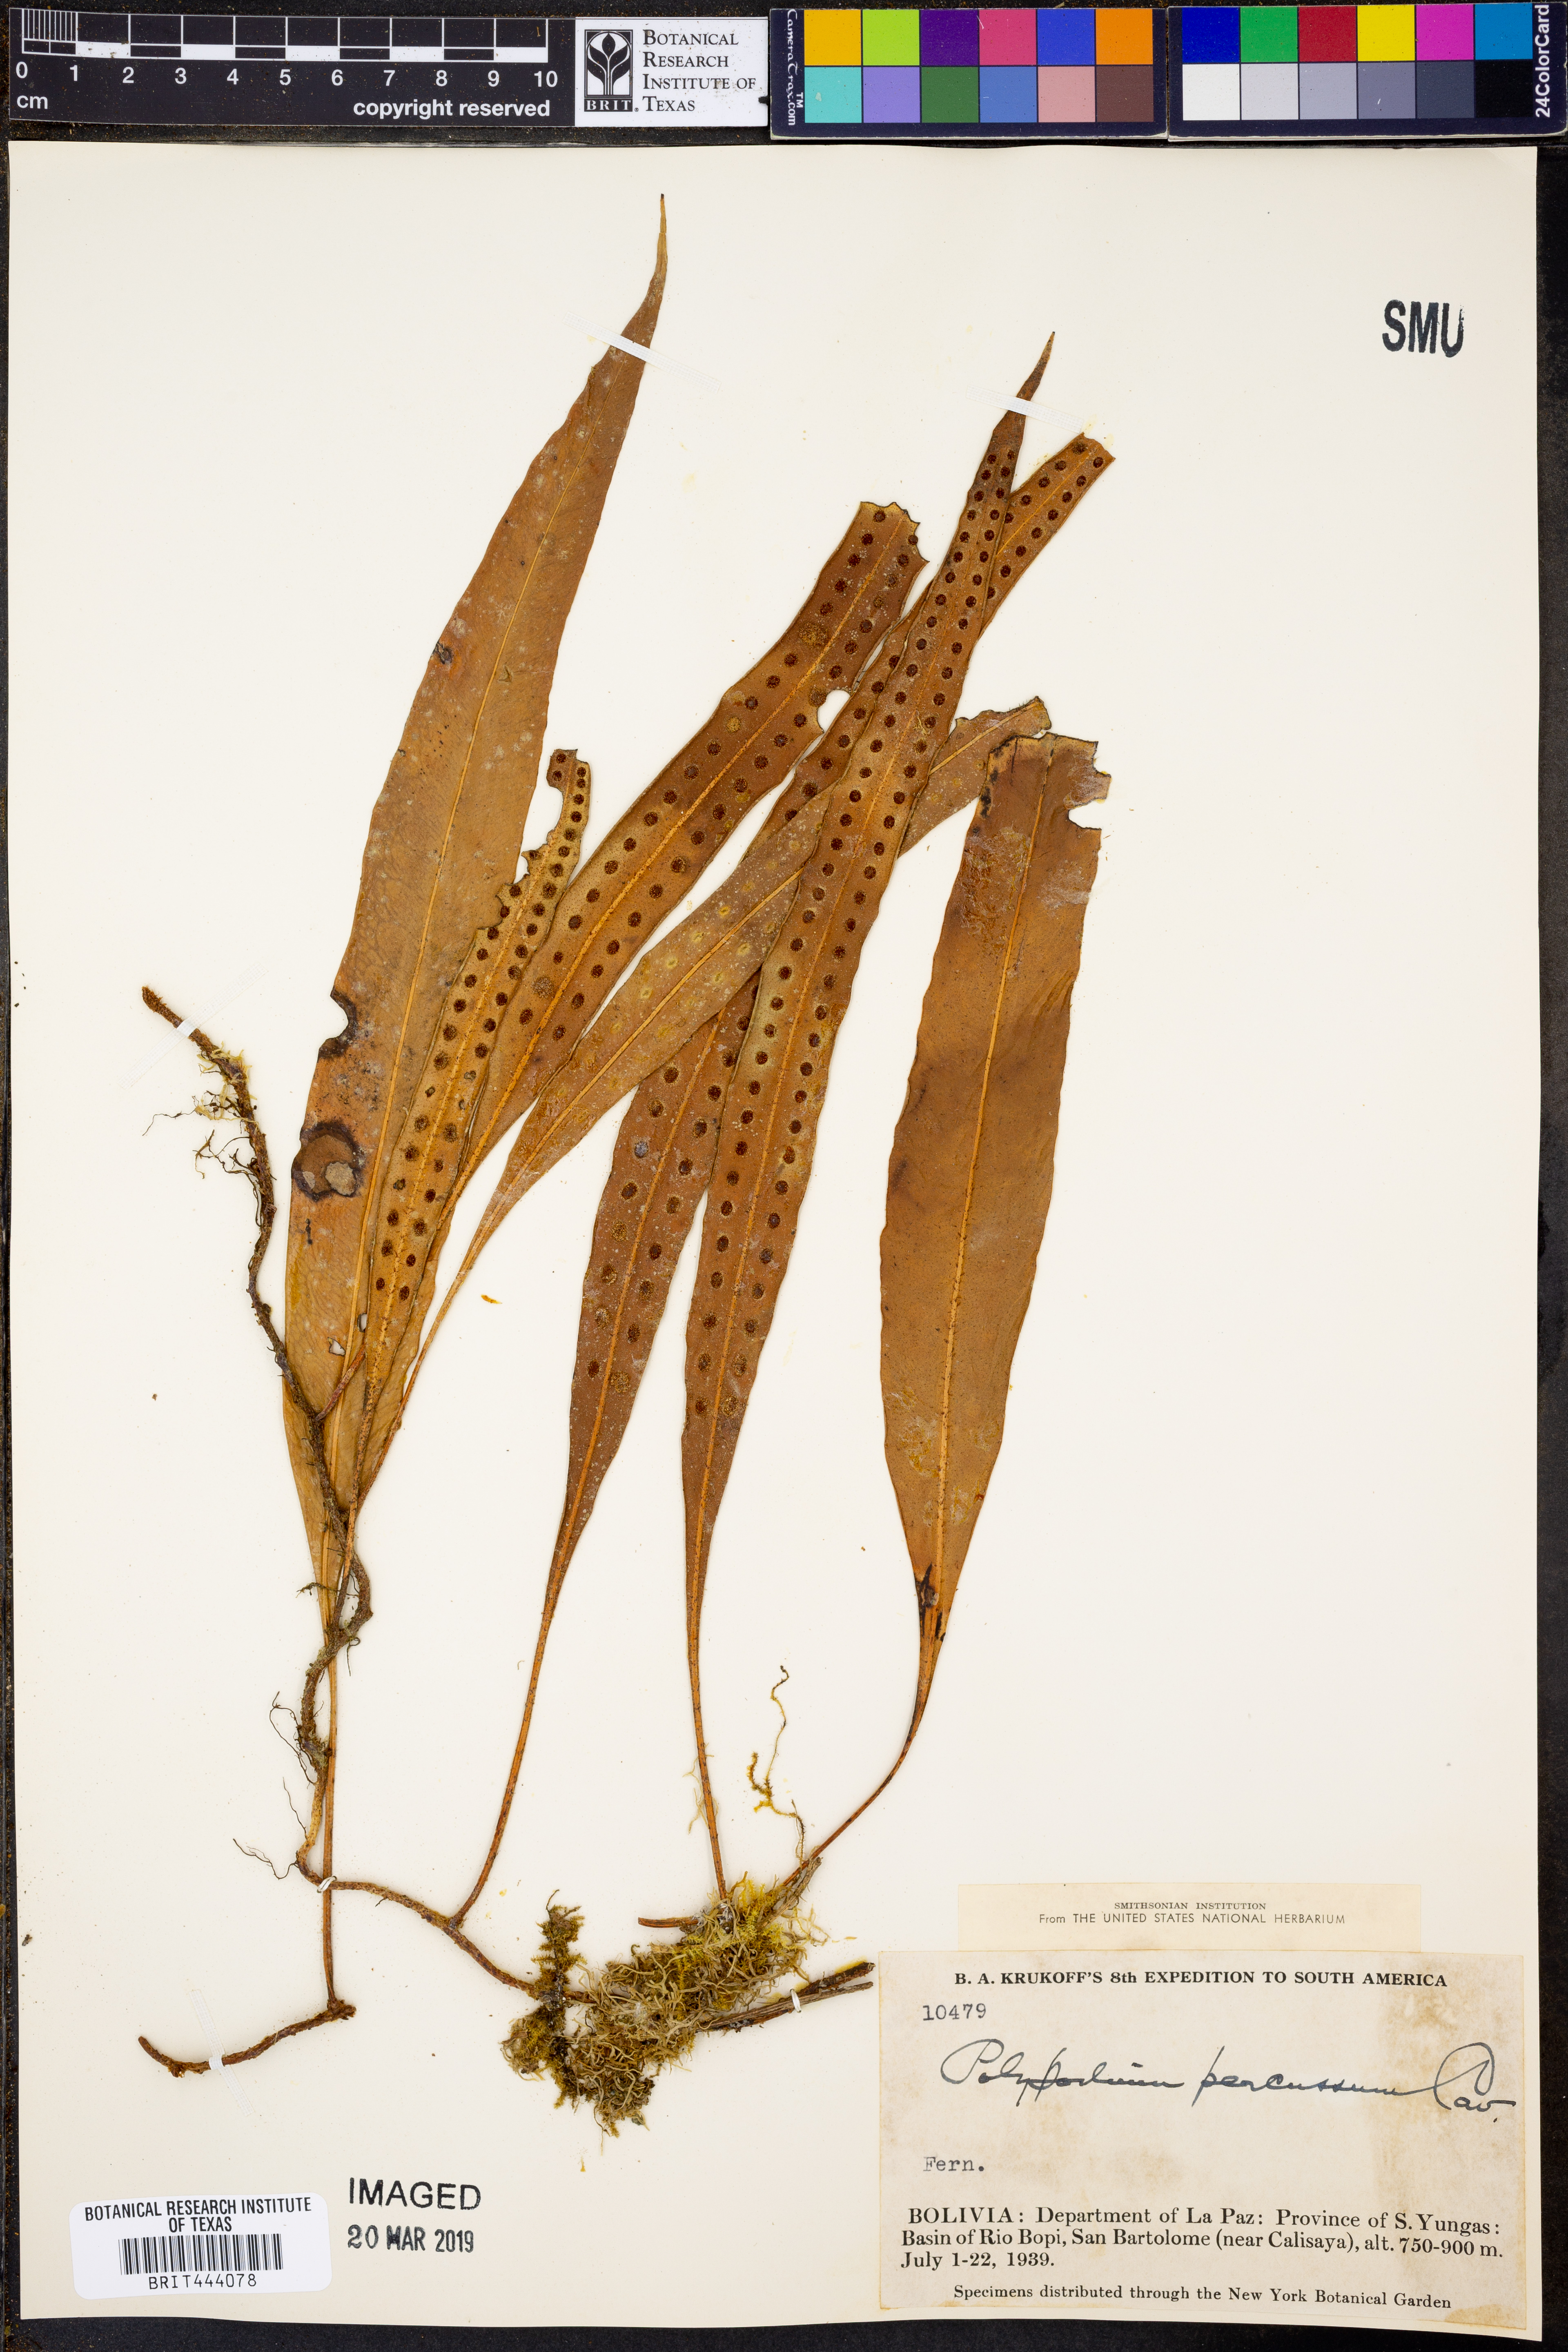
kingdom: Plantae
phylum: Tracheophyta
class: Polypodiopsida
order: Polypodiales
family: Polypodiaceae
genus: Microgramma
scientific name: Microgramma percussa
